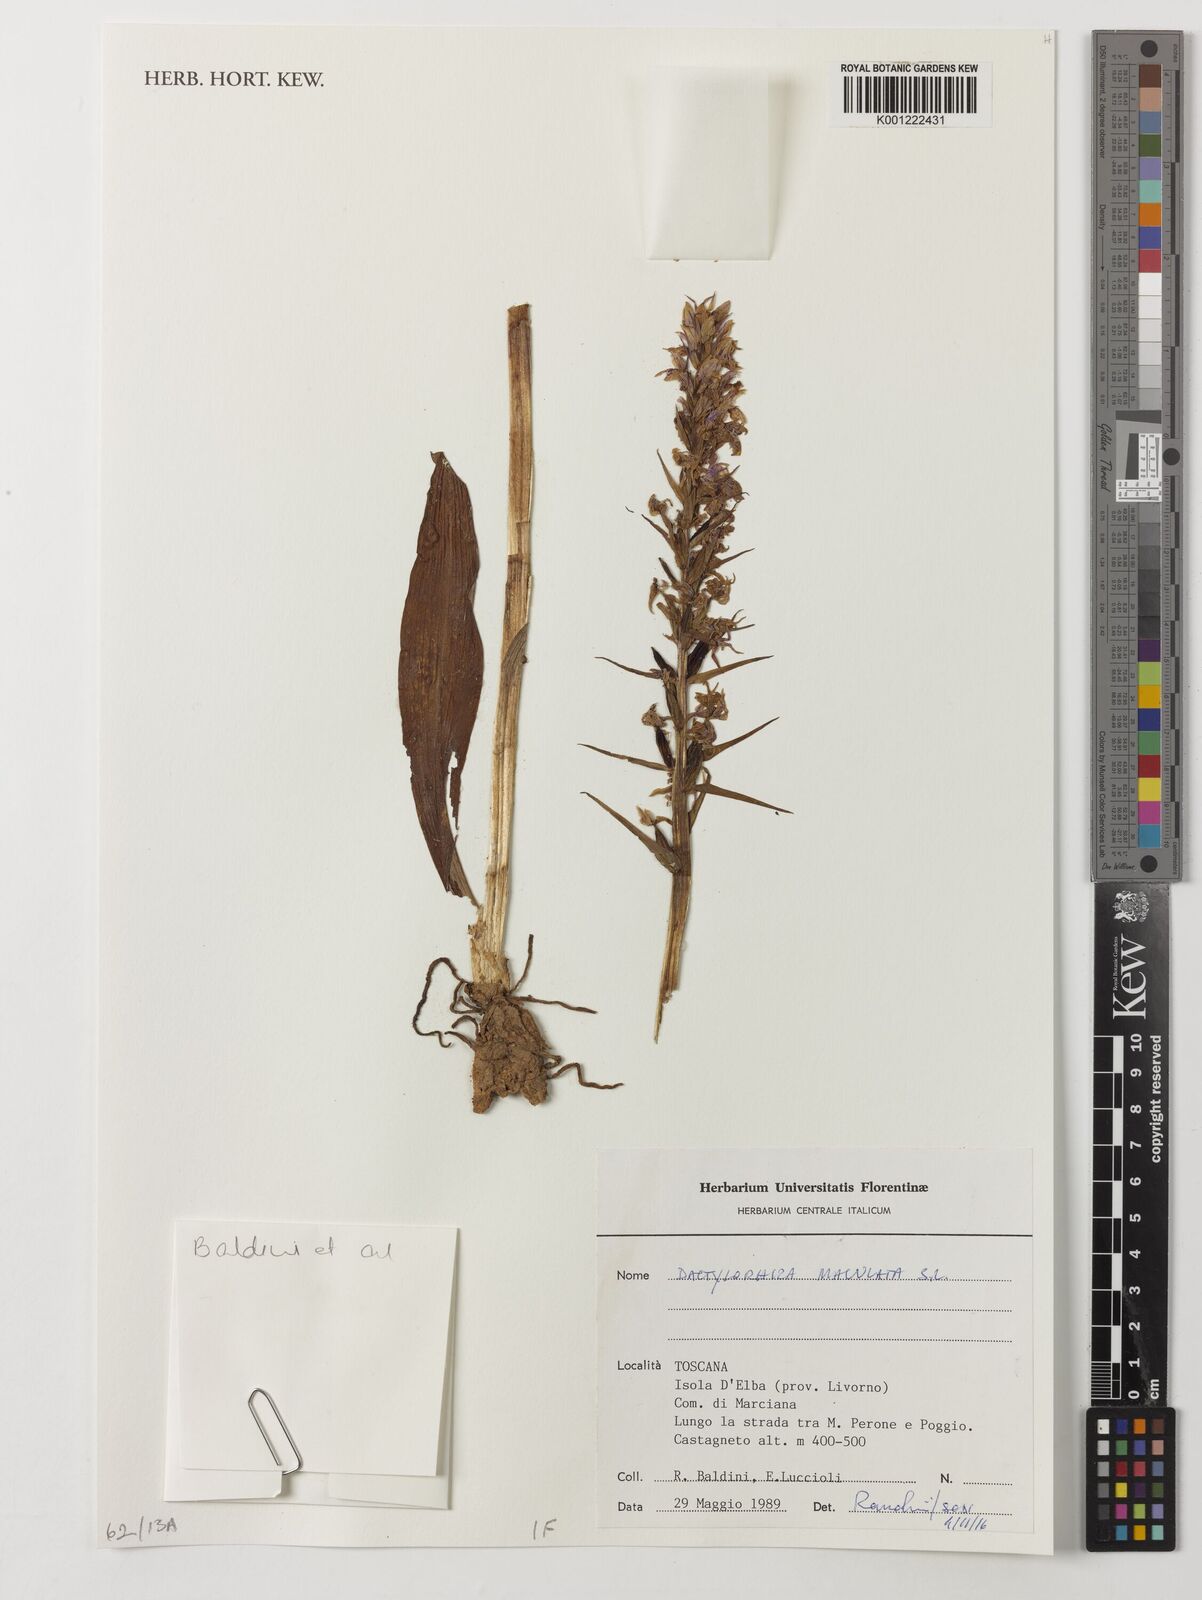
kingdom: Plantae
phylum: Tracheophyta
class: Liliopsida
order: Asparagales
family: Orchidaceae
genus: Orchis
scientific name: Orchis maculana
